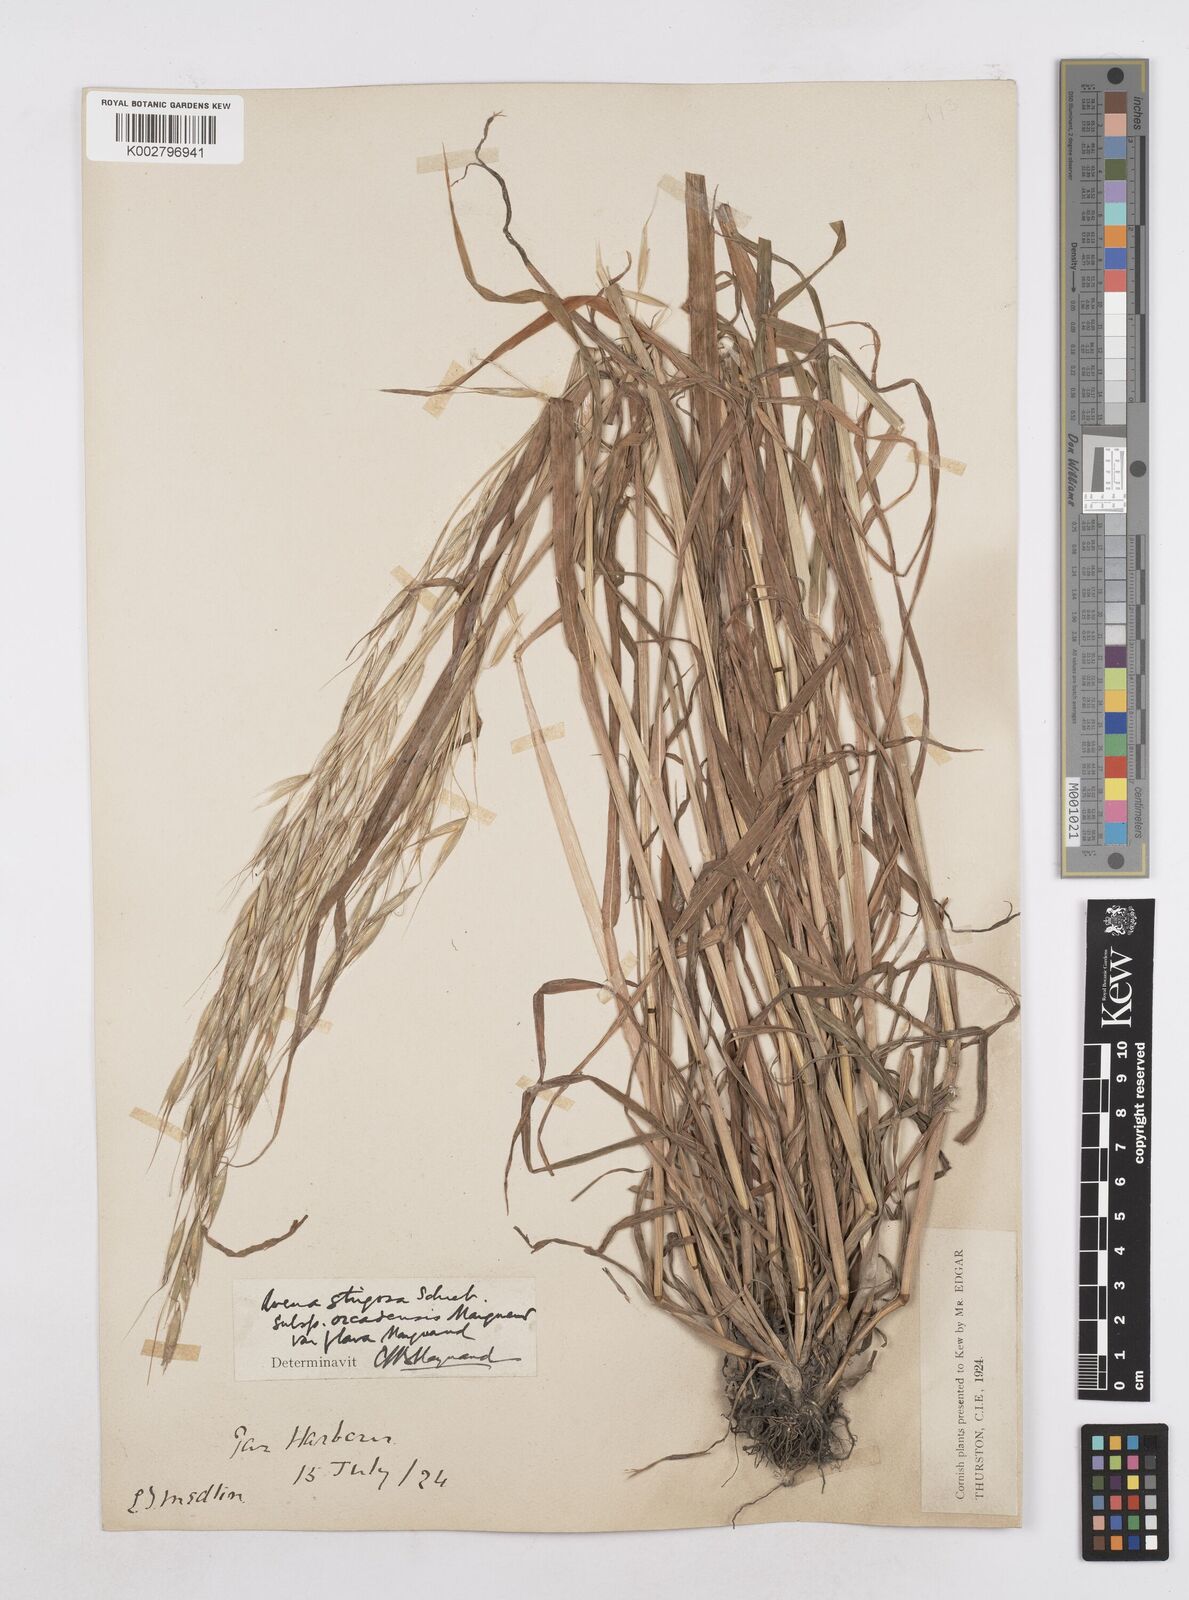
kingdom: Plantae
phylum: Tracheophyta
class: Liliopsida
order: Poales
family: Poaceae
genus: Avena
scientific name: Avena strigosa
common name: Bristle oat
